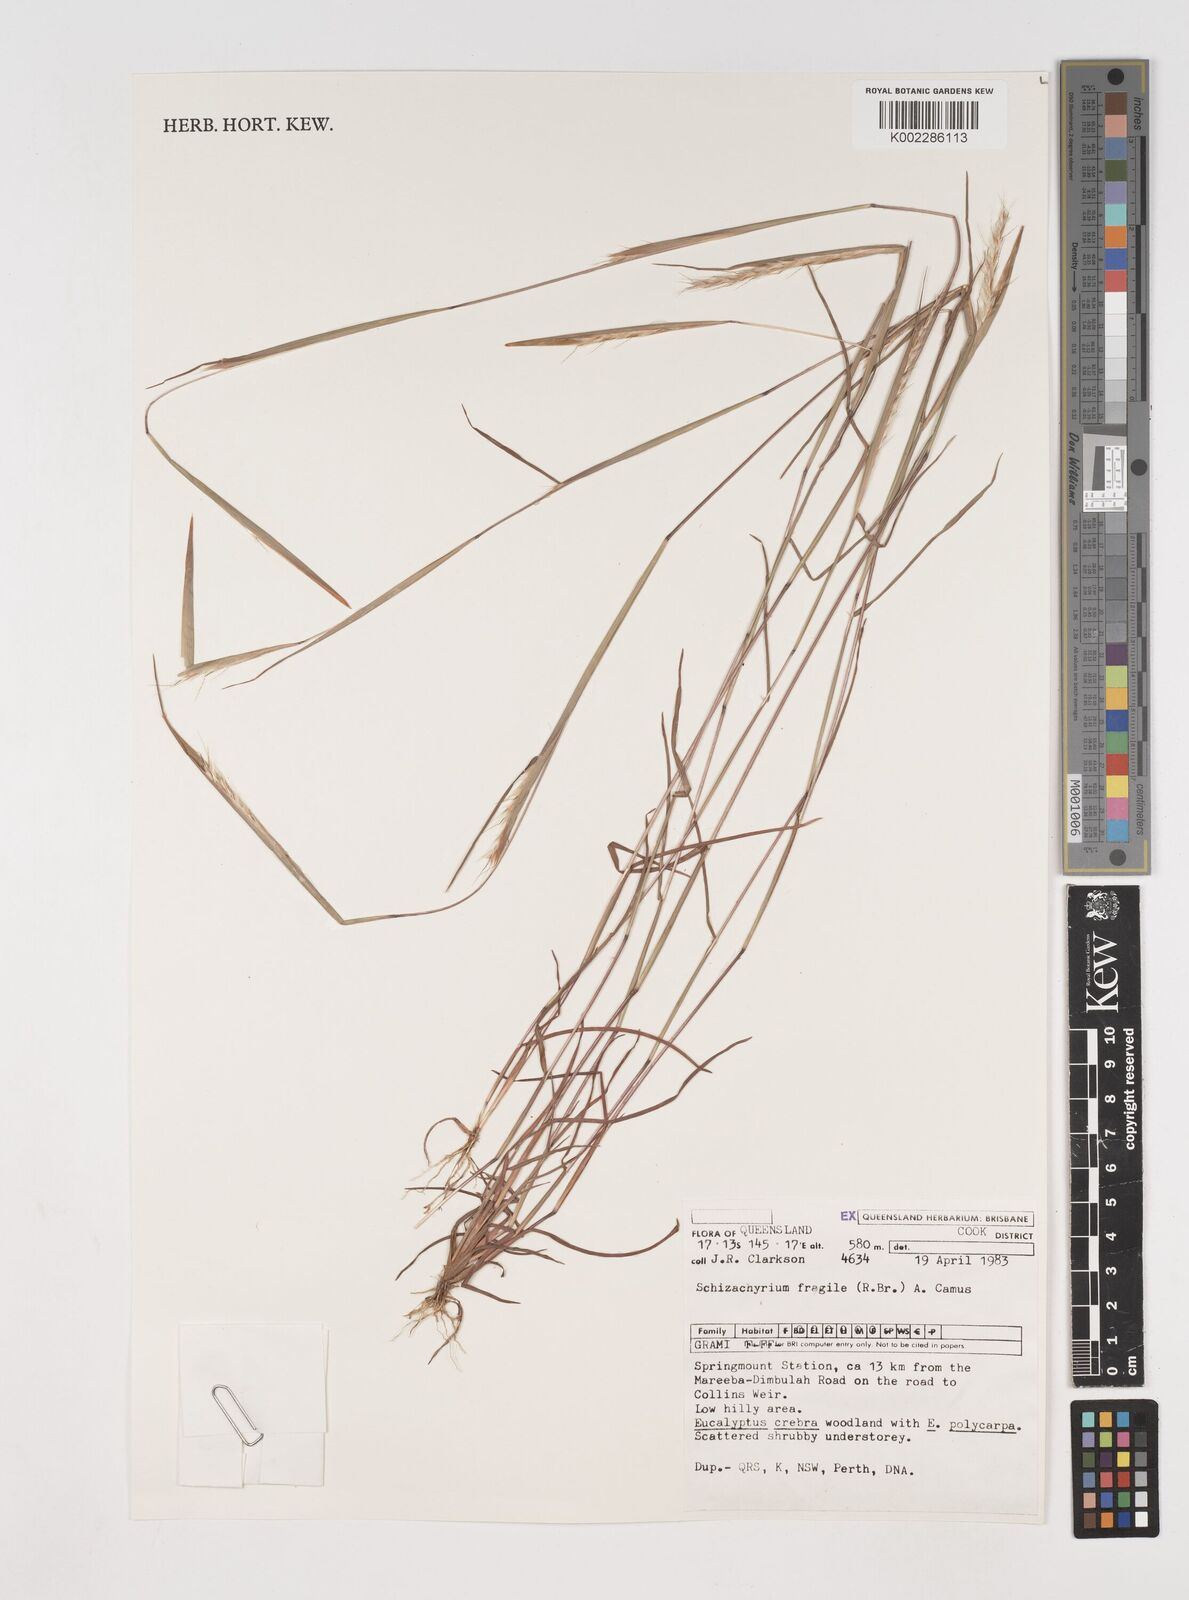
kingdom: Plantae
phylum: Tracheophyta
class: Liliopsida
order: Poales
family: Poaceae
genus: Schizachyrium
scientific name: Schizachyrium fragile
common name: Red spathe grass
